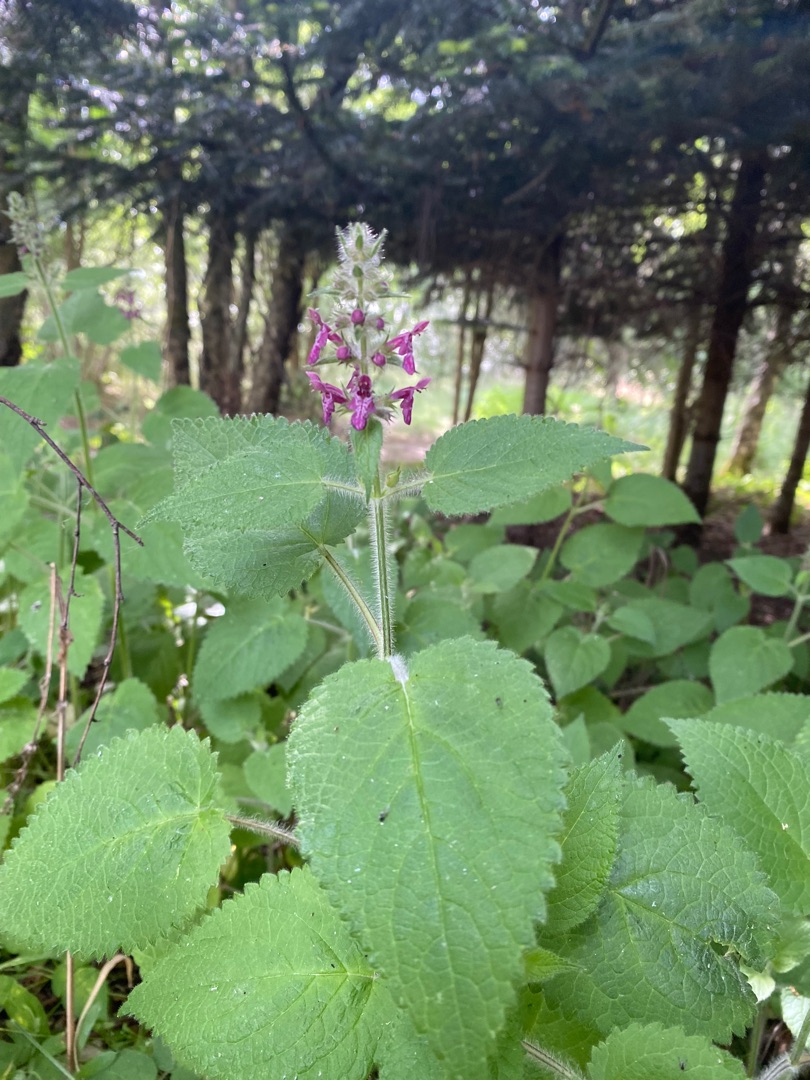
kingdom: Plantae
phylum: Tracheophyta
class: Magnoliopsida
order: Lamiales
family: Lamiaceae
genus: Stachys
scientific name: Stachys sylvatica
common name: Skov-galtetand
